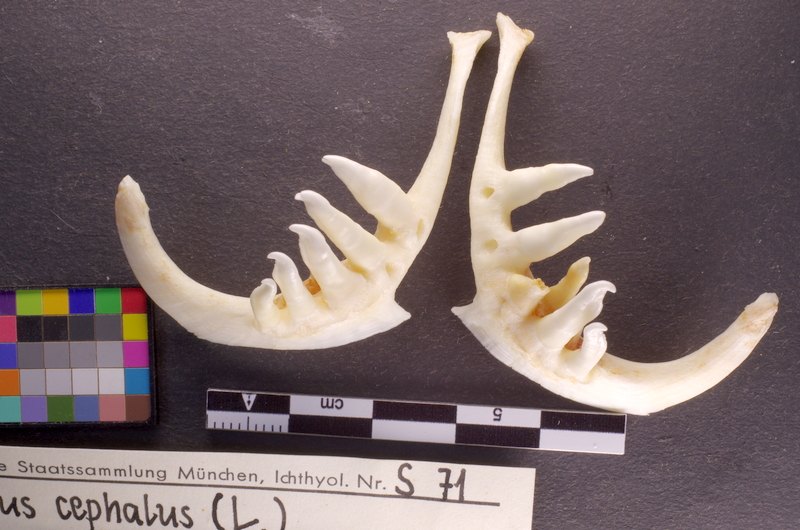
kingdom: Animalia
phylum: Chordata
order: Cypriniformes
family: Cyprinidae
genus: Squalius
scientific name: Squalius cephalus
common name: Chub
